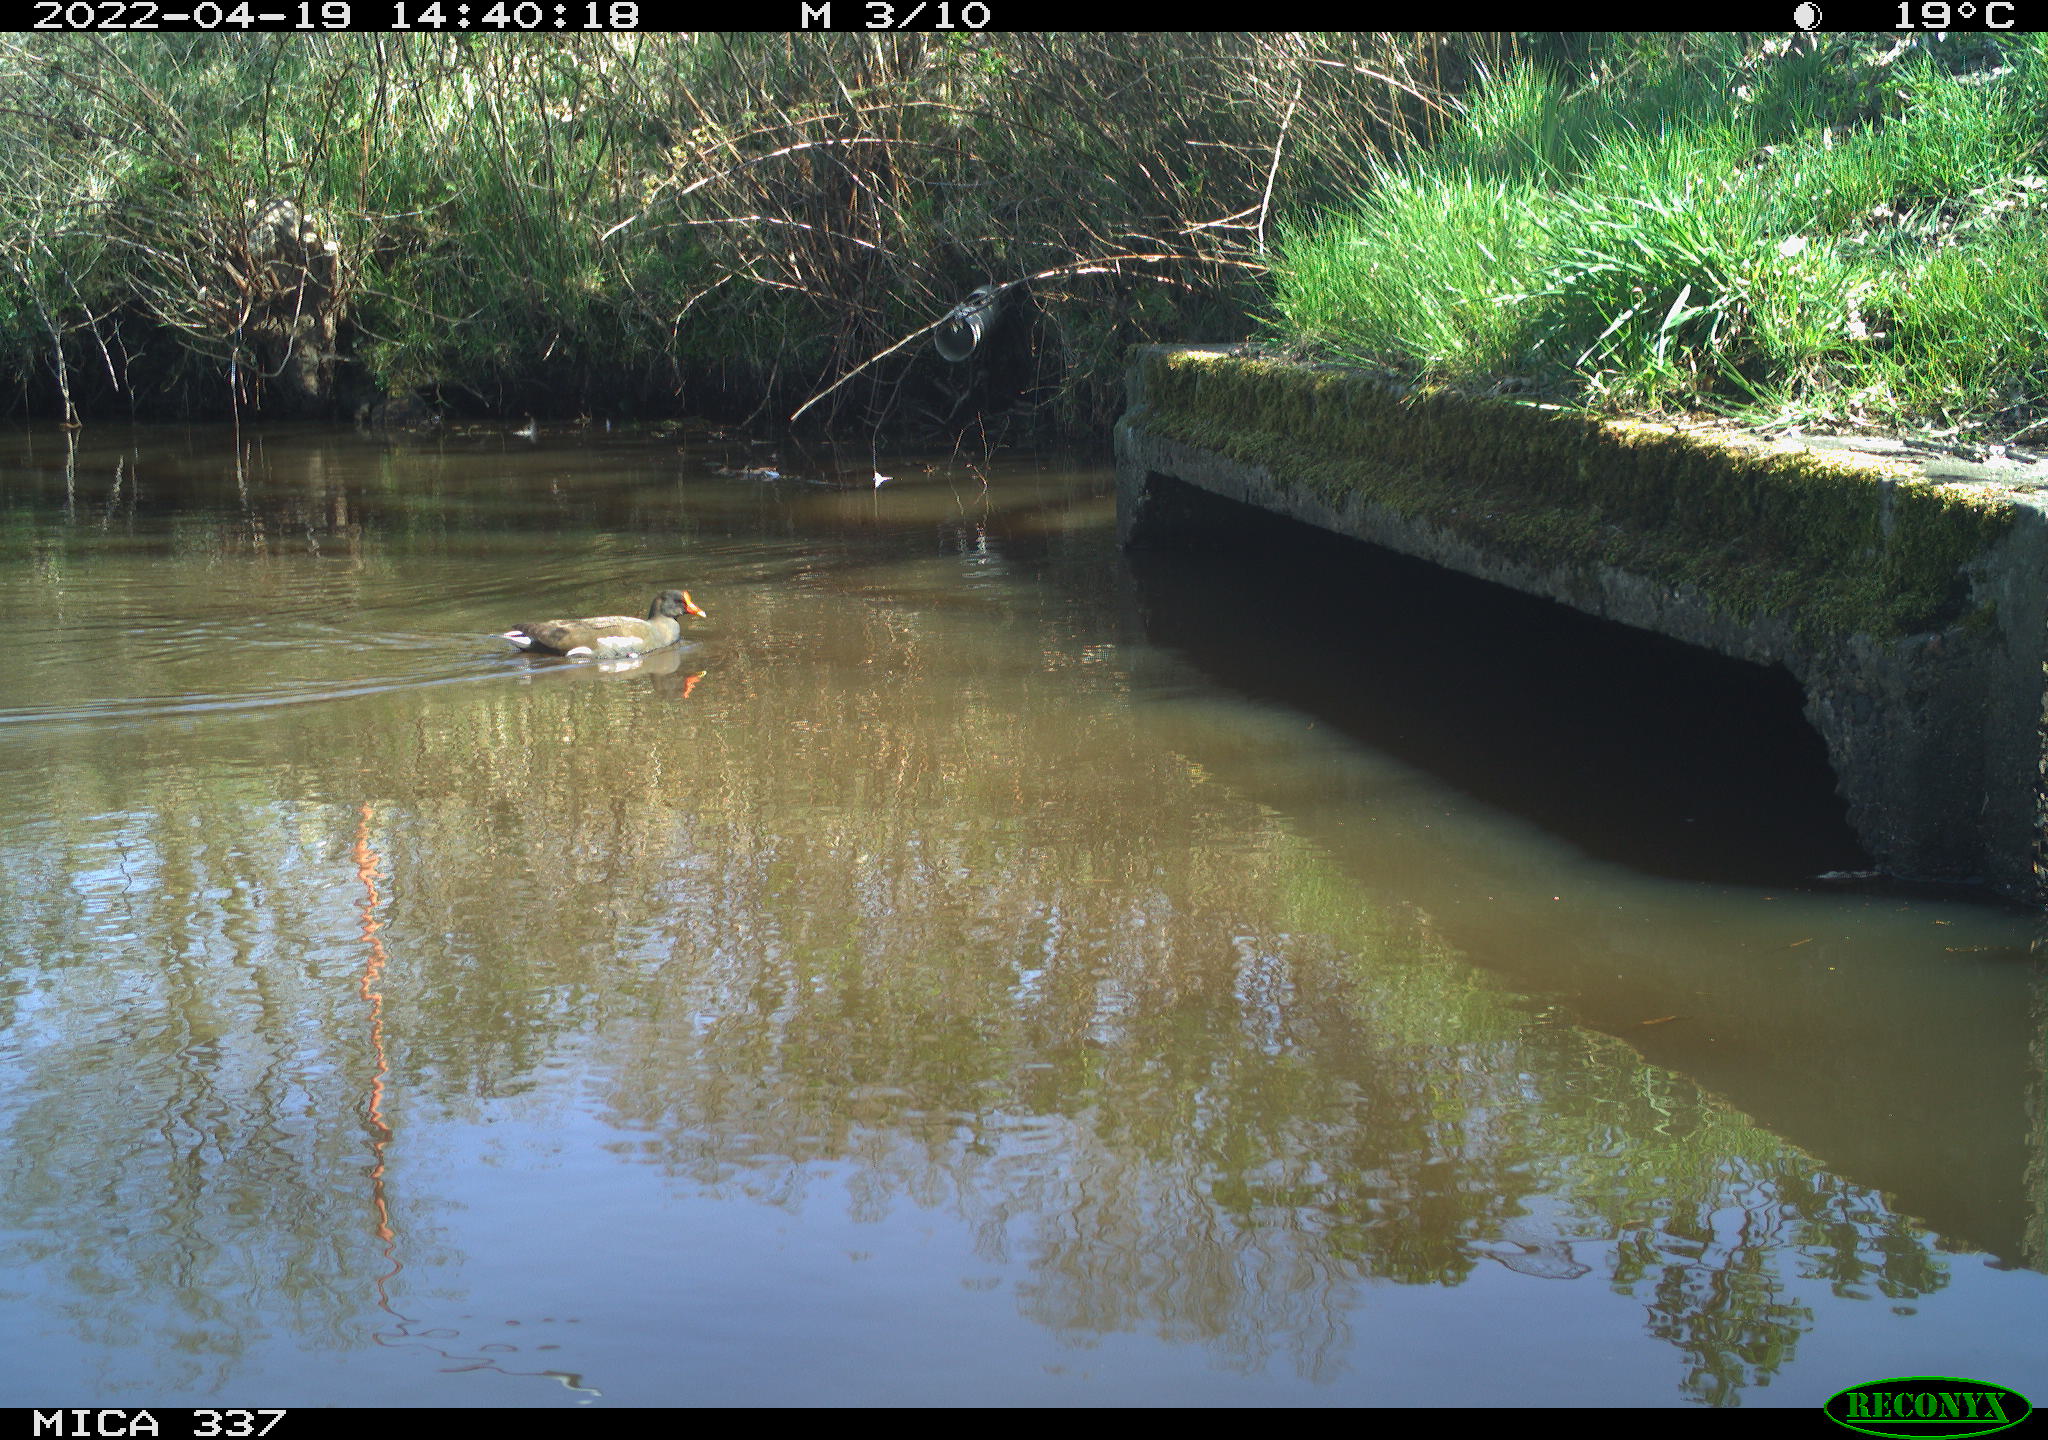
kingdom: Animalia
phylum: Chordata
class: Aves
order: Gruiformes
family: Rallidae
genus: Gallinula
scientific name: Gallinula chloropus
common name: Common moorhen
